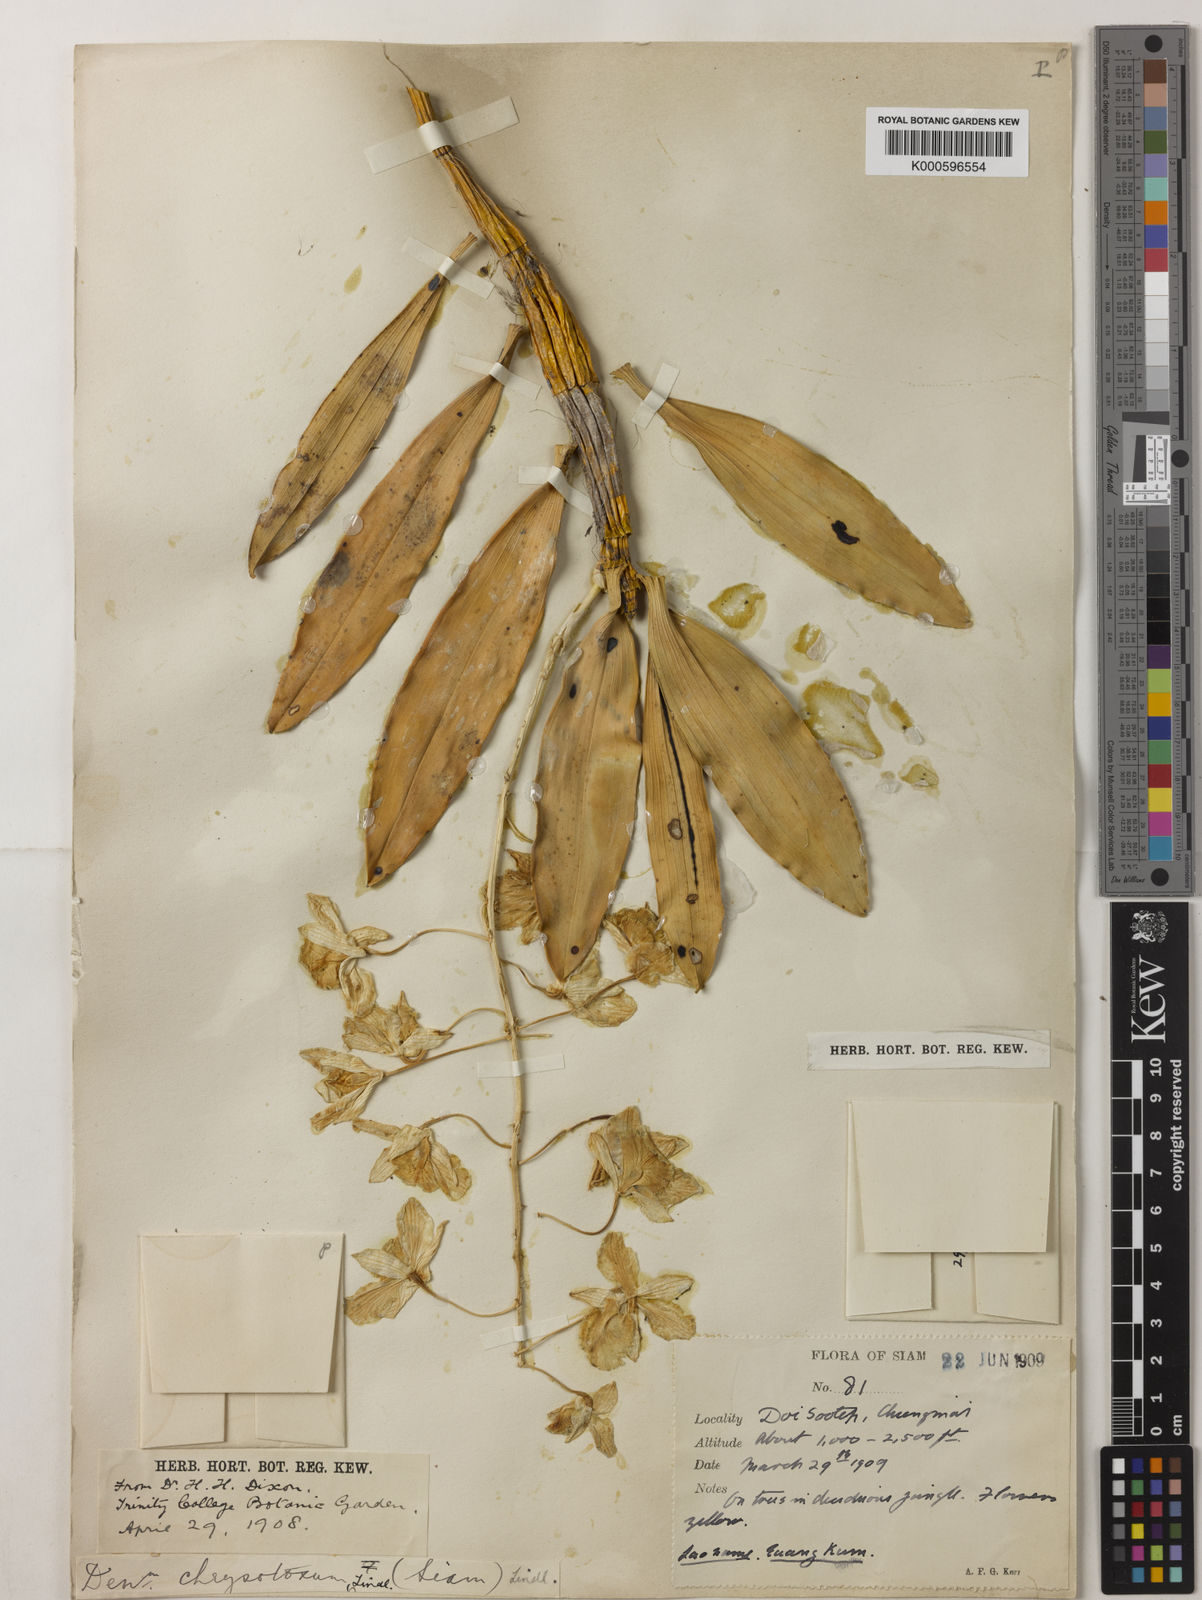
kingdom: Plantae
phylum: Tracheophyta
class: Liliopsida
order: Asparagales
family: Orchidaceae
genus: Dendrobium
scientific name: Dendrobium chrysotoxum
